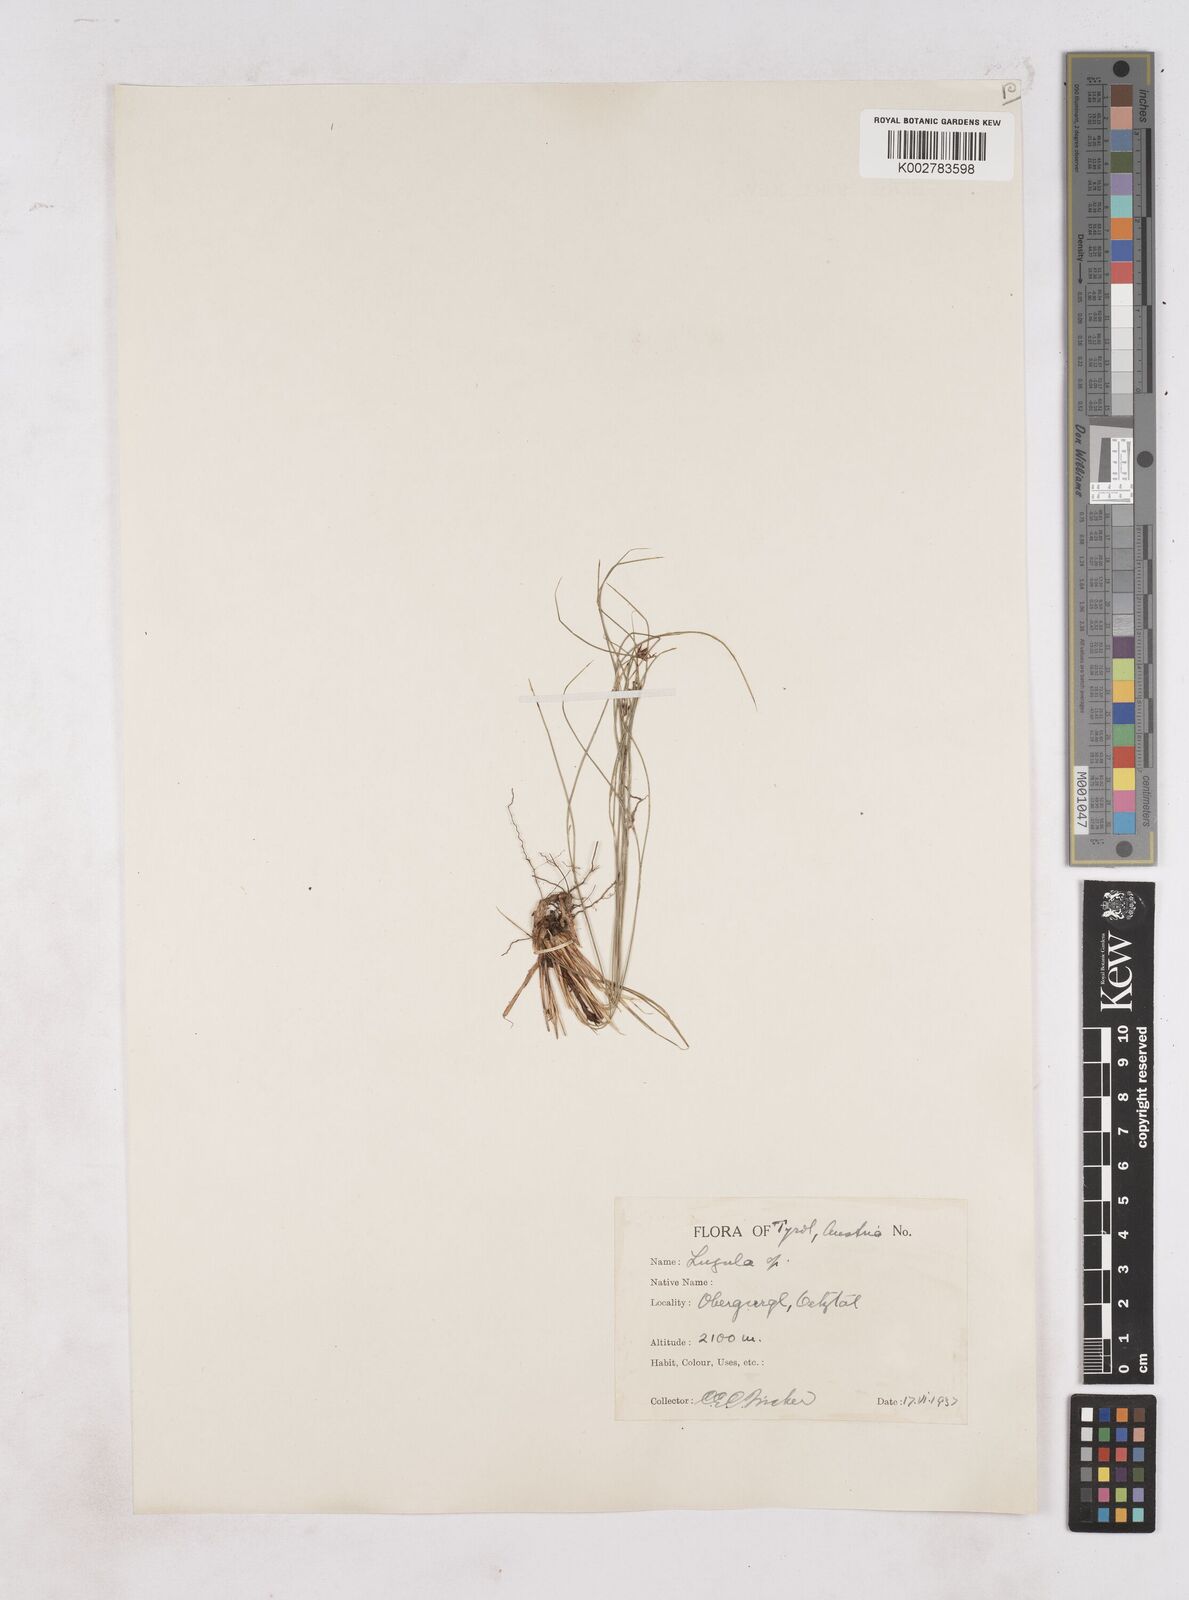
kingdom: Plantae
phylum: Tracheophyta
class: Liliopsida
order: Poales
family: Juncaceae
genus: Luzula
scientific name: Luzula
